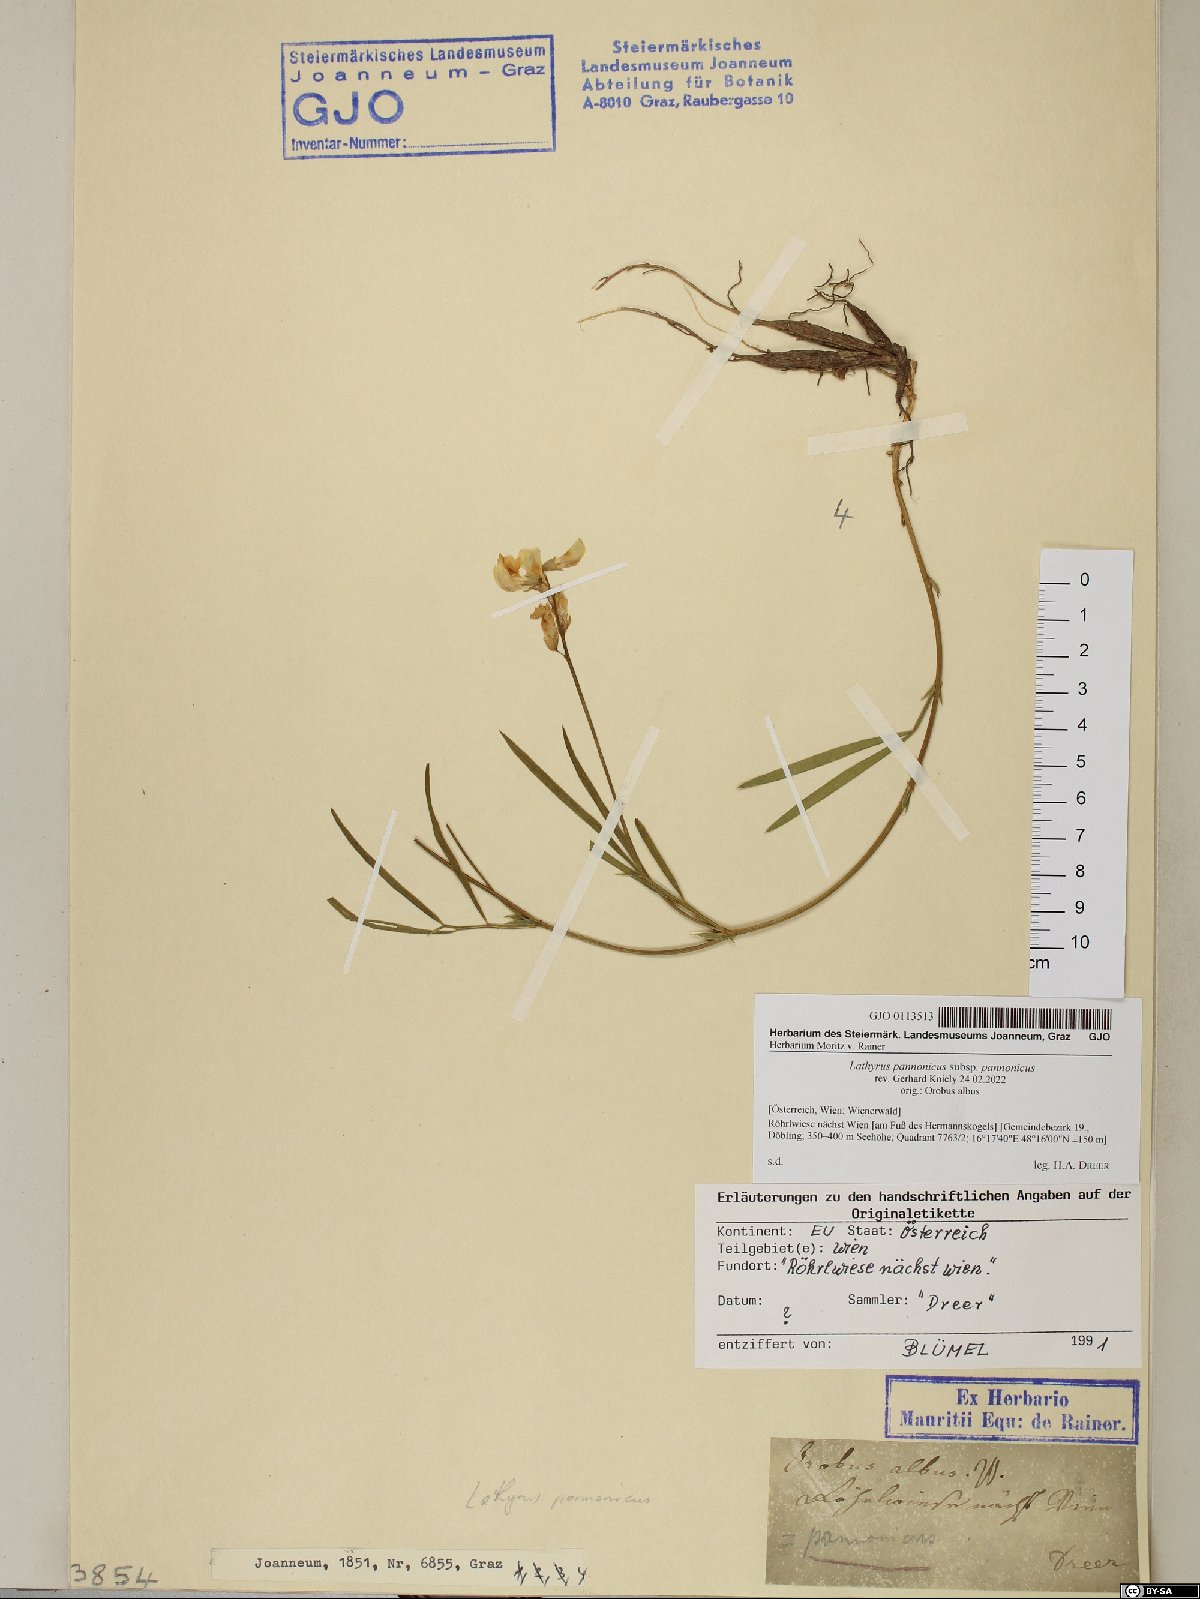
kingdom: Plantae
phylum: Tracheophyta
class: Magnoliopsida
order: Fabales
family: Fabaceae
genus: Lathyrus
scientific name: Lathyrus pannonicus
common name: Pea
